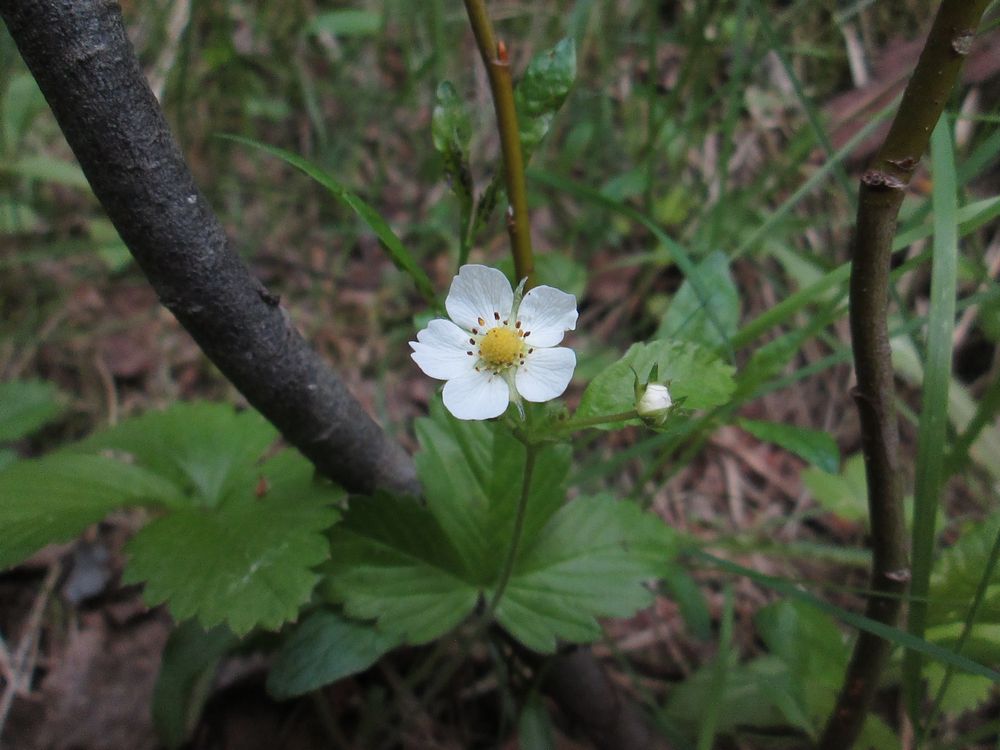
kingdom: Plantae
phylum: Tracheophyta
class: Magnoliopsida
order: Rosales
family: Rosaceae
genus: Fragaria
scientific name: Fragaria vesca
